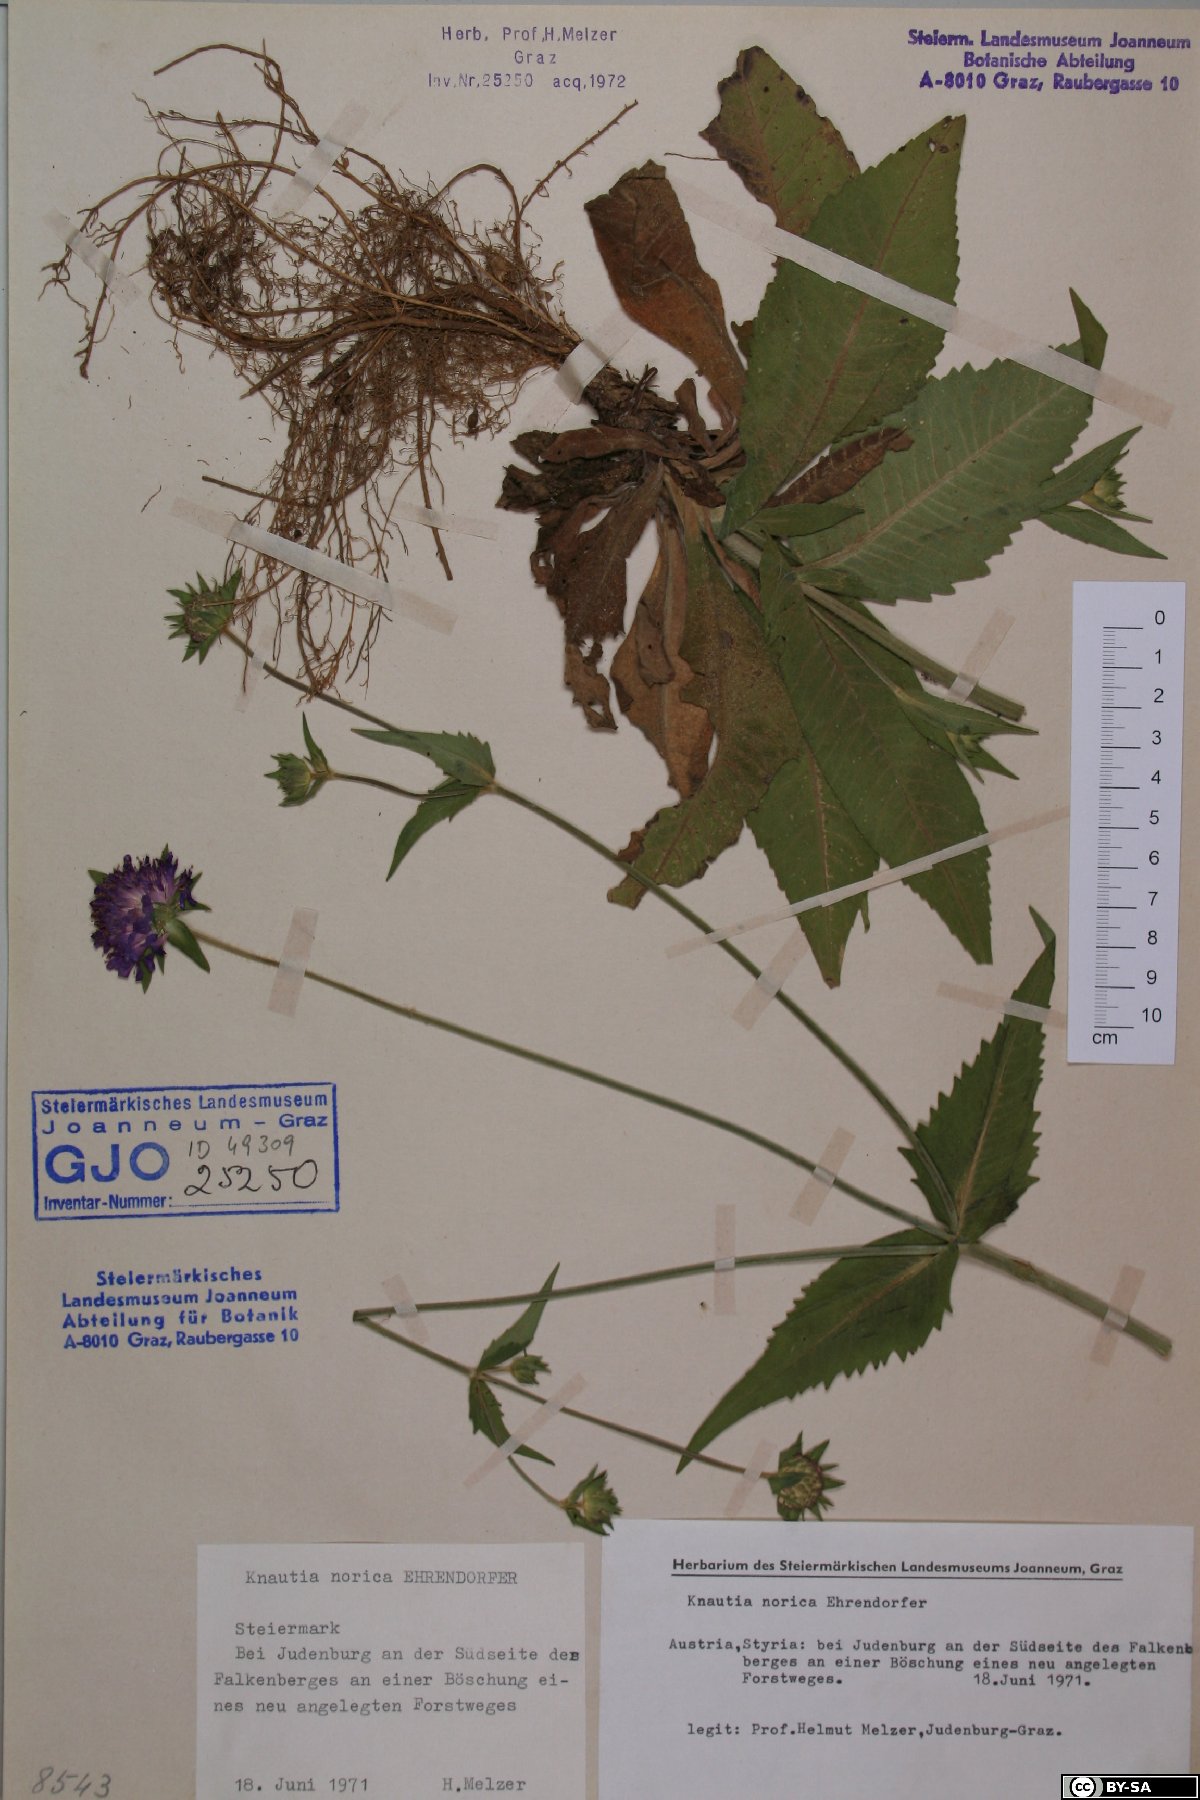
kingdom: Plantae
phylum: Tracheophyta
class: Magnoliopsida
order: Dipsacales
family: Caprifoliaceae
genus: Knautia
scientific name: Knautia norica
